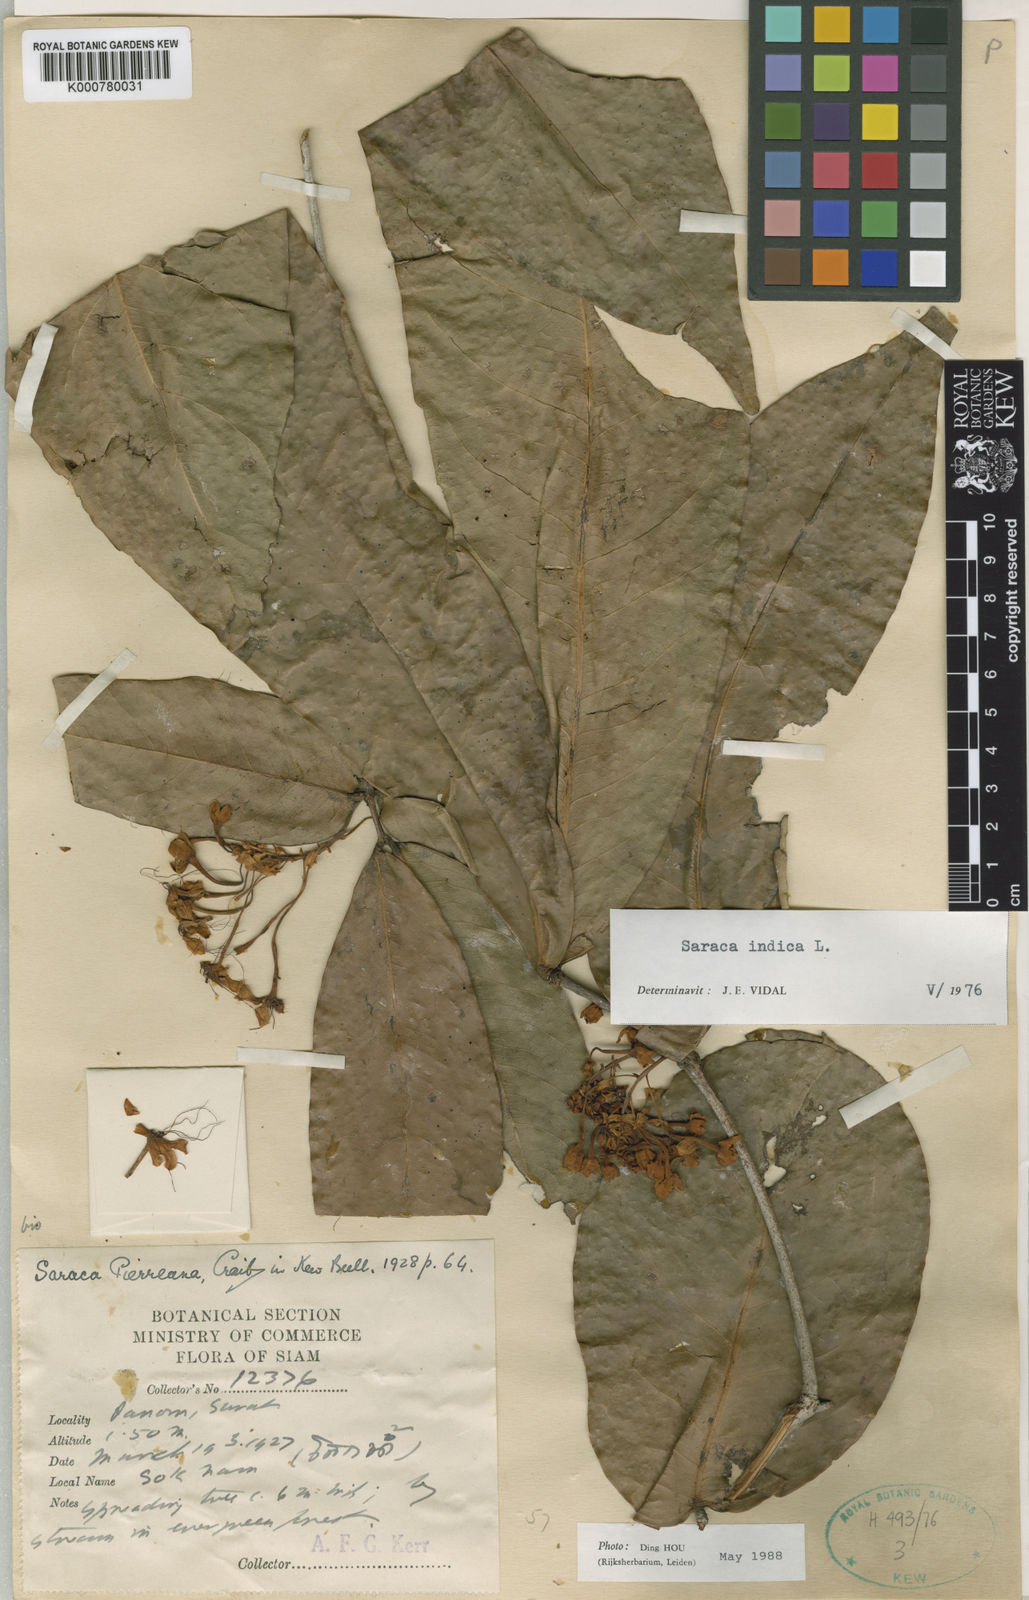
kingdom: Plantae
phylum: Tracheophyta
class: Magnoliopsida
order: Fabales
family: Fabaceae
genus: Saraca
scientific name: Saraca indica
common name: Asoka-tree
